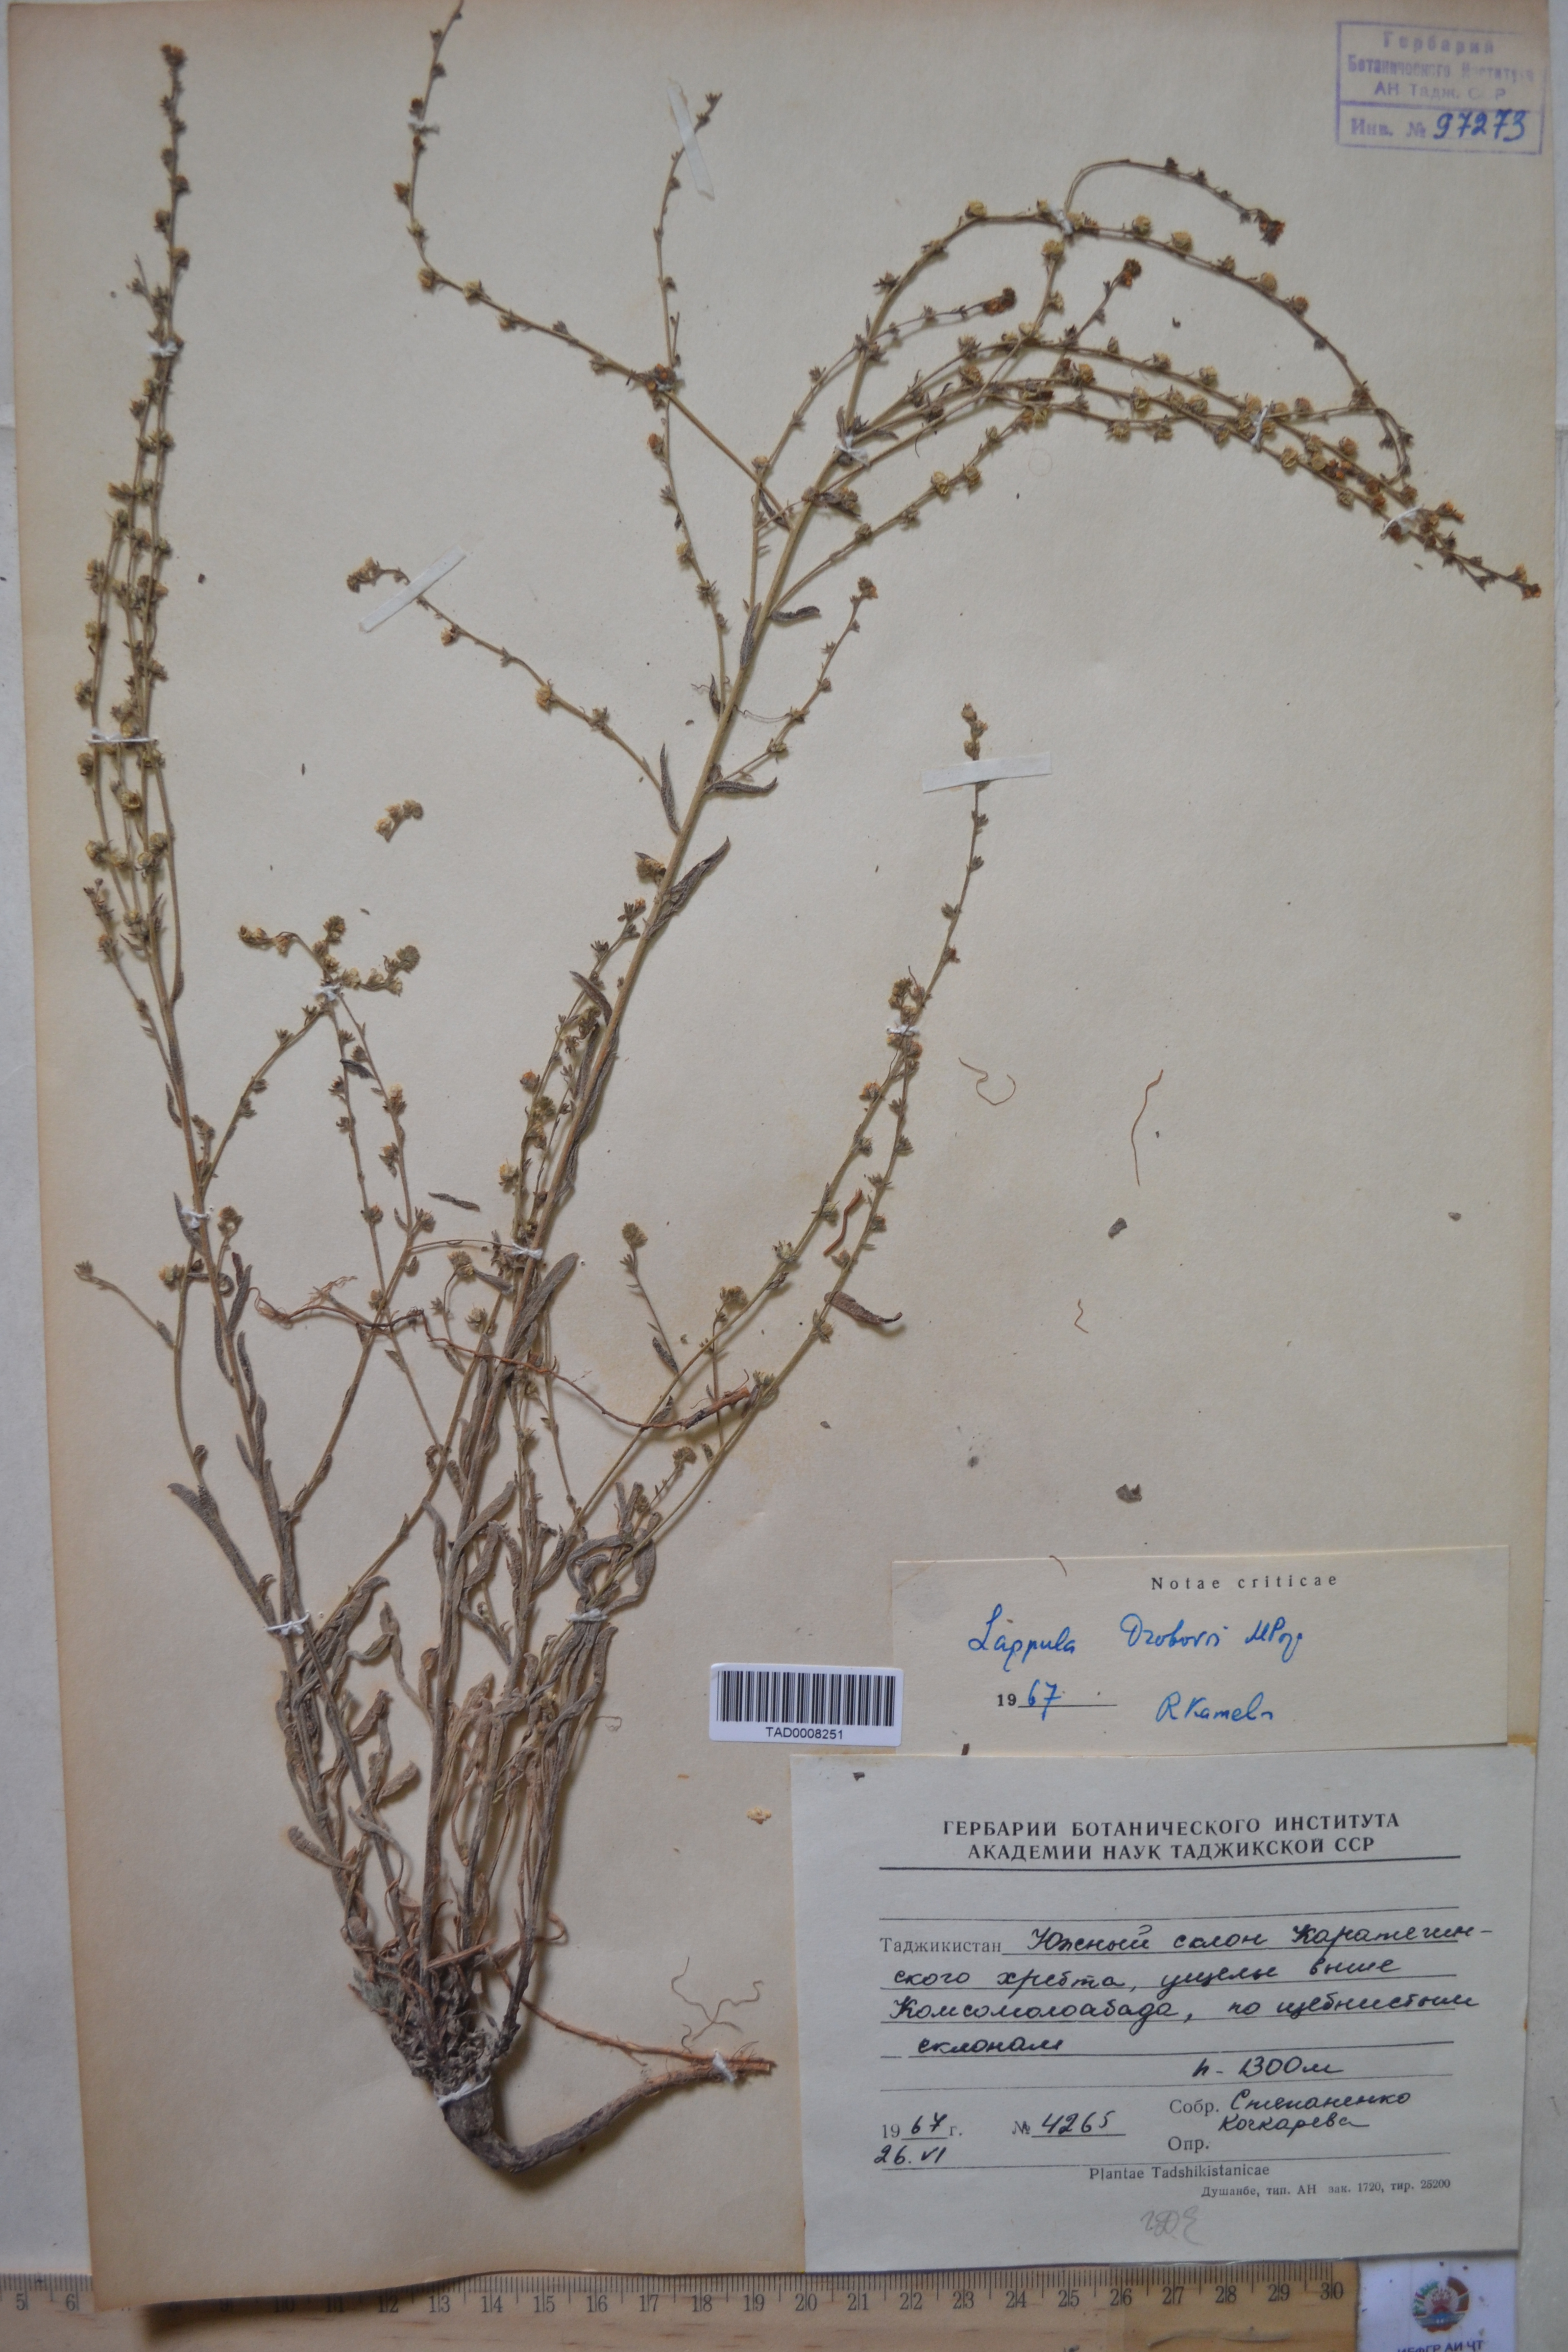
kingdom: Plantae
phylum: Tracheophyta
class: Magnoliopsida
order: Boraginales
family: Boraginaceae
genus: Rochelia
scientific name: Rochelia drobovii
